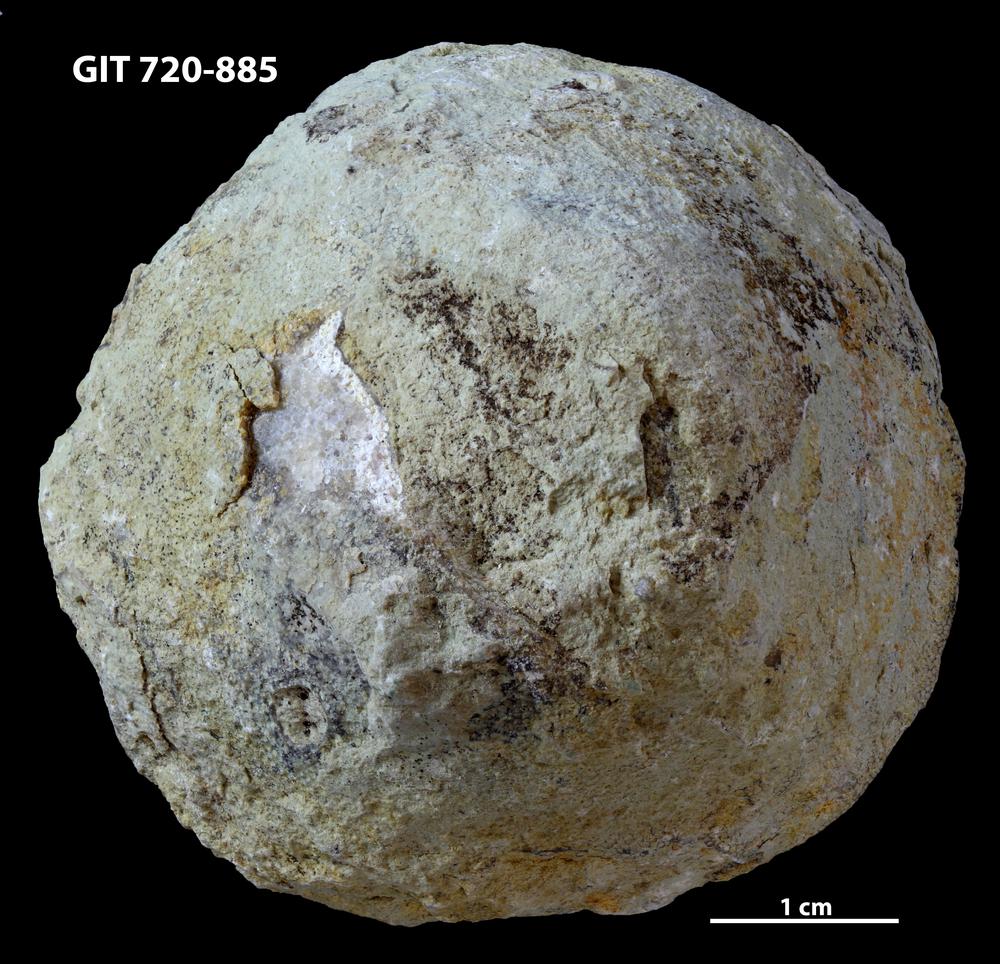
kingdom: Animalia
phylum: Bryozoa
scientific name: Bryozoa
